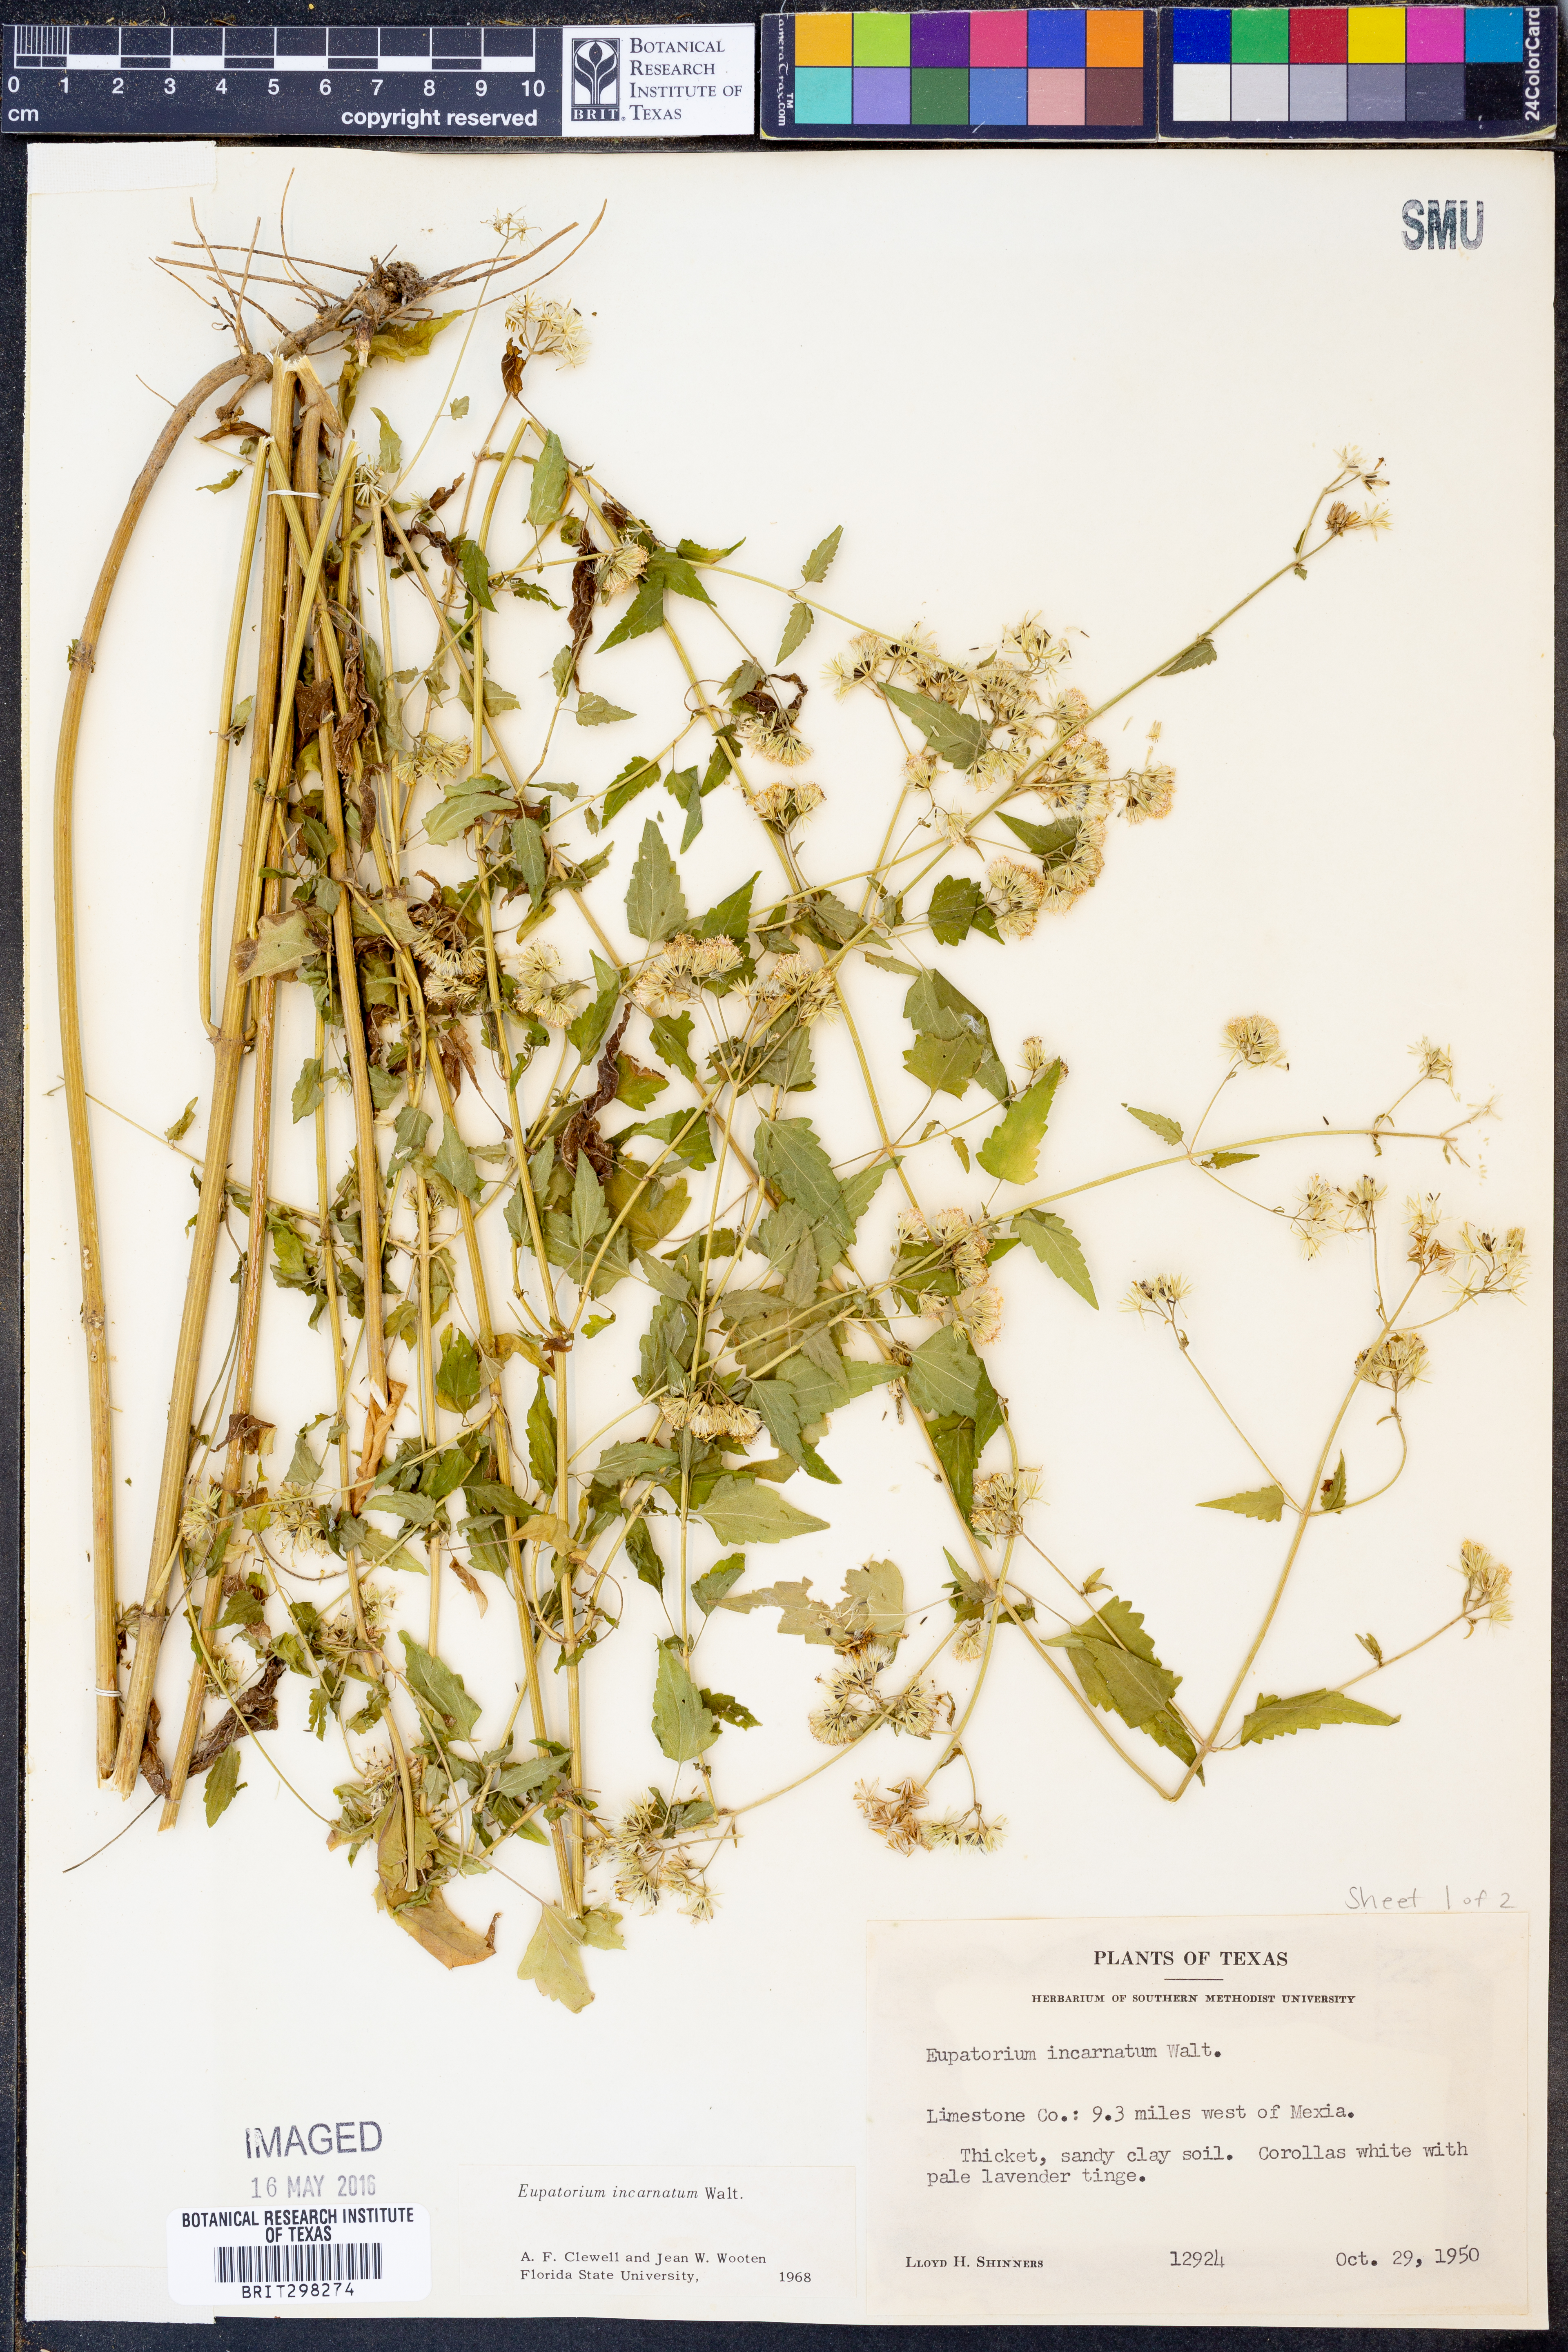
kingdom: Plantae
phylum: Tracheophyta
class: Magnoliopsida
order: Asterales
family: Asteraceae
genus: Fleischmannia
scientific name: Fleischmannia incarnata
